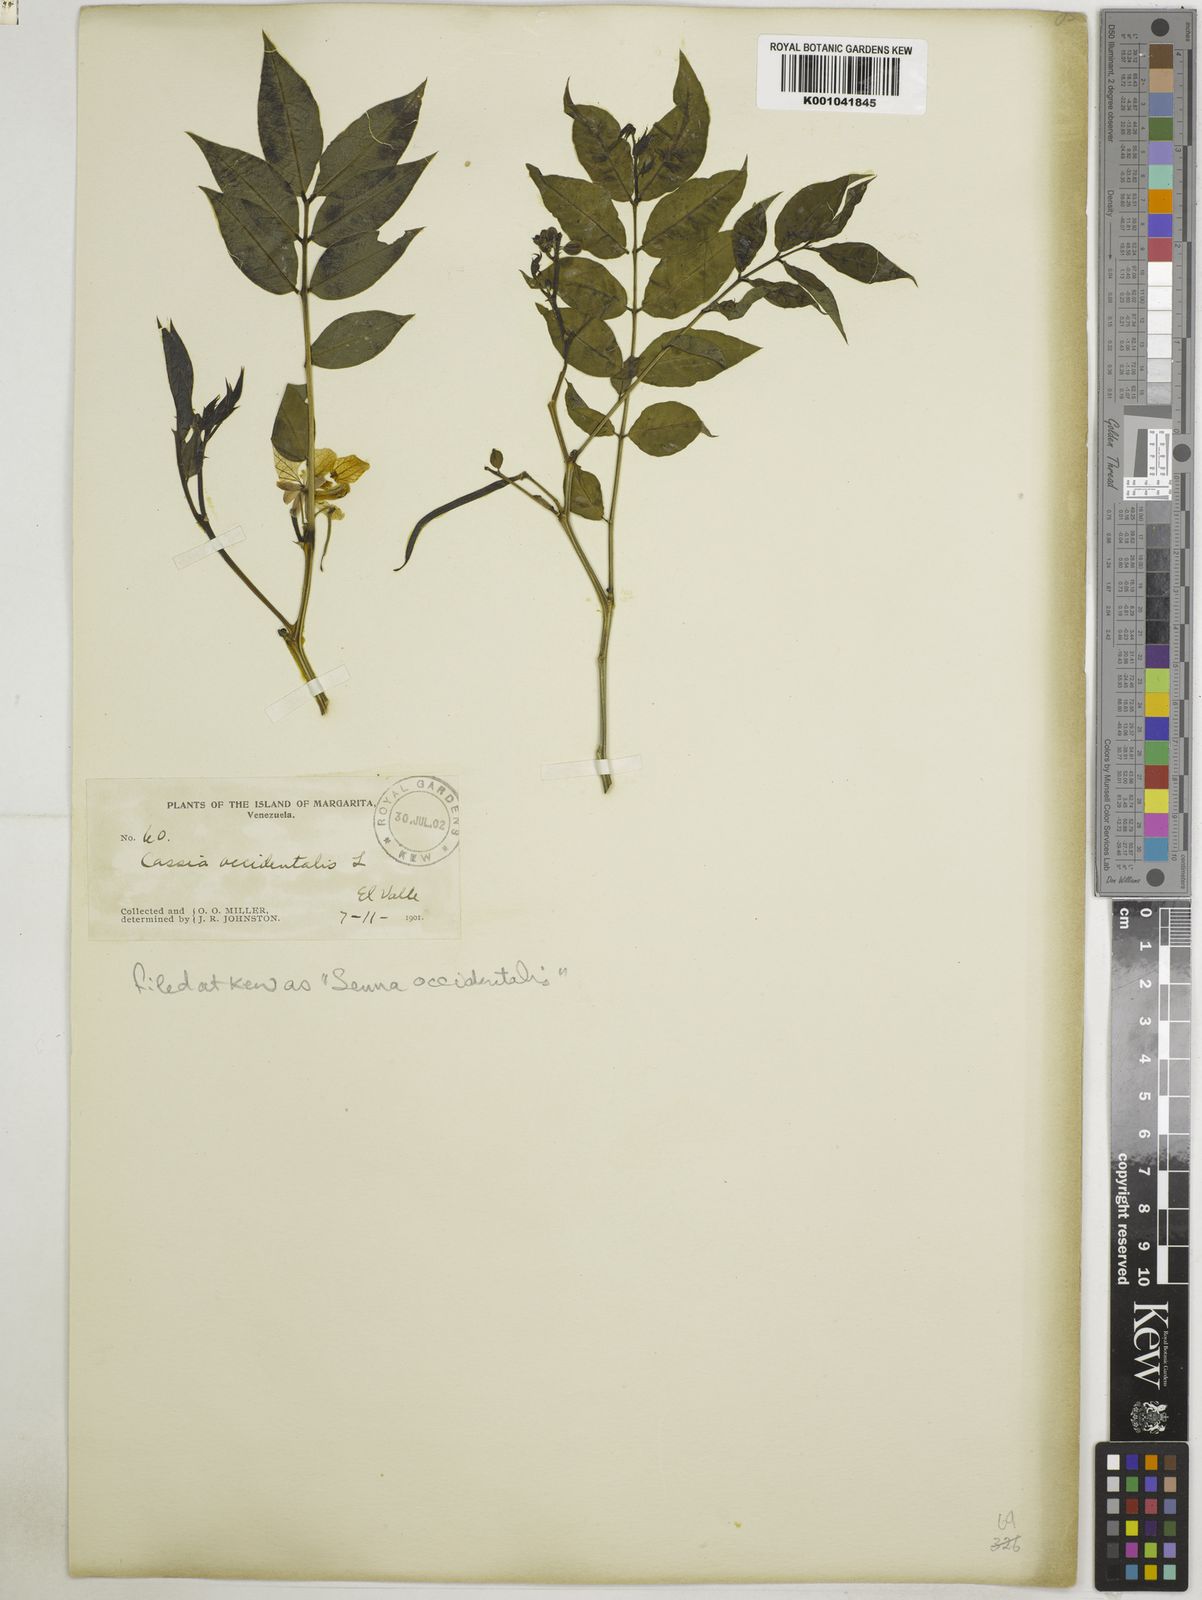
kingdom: Plantae
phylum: Tracheophyta
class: Magnoliopsida
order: Fabales
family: Fabaceae
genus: Senna
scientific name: Senna occidentalis
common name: Septicweed
